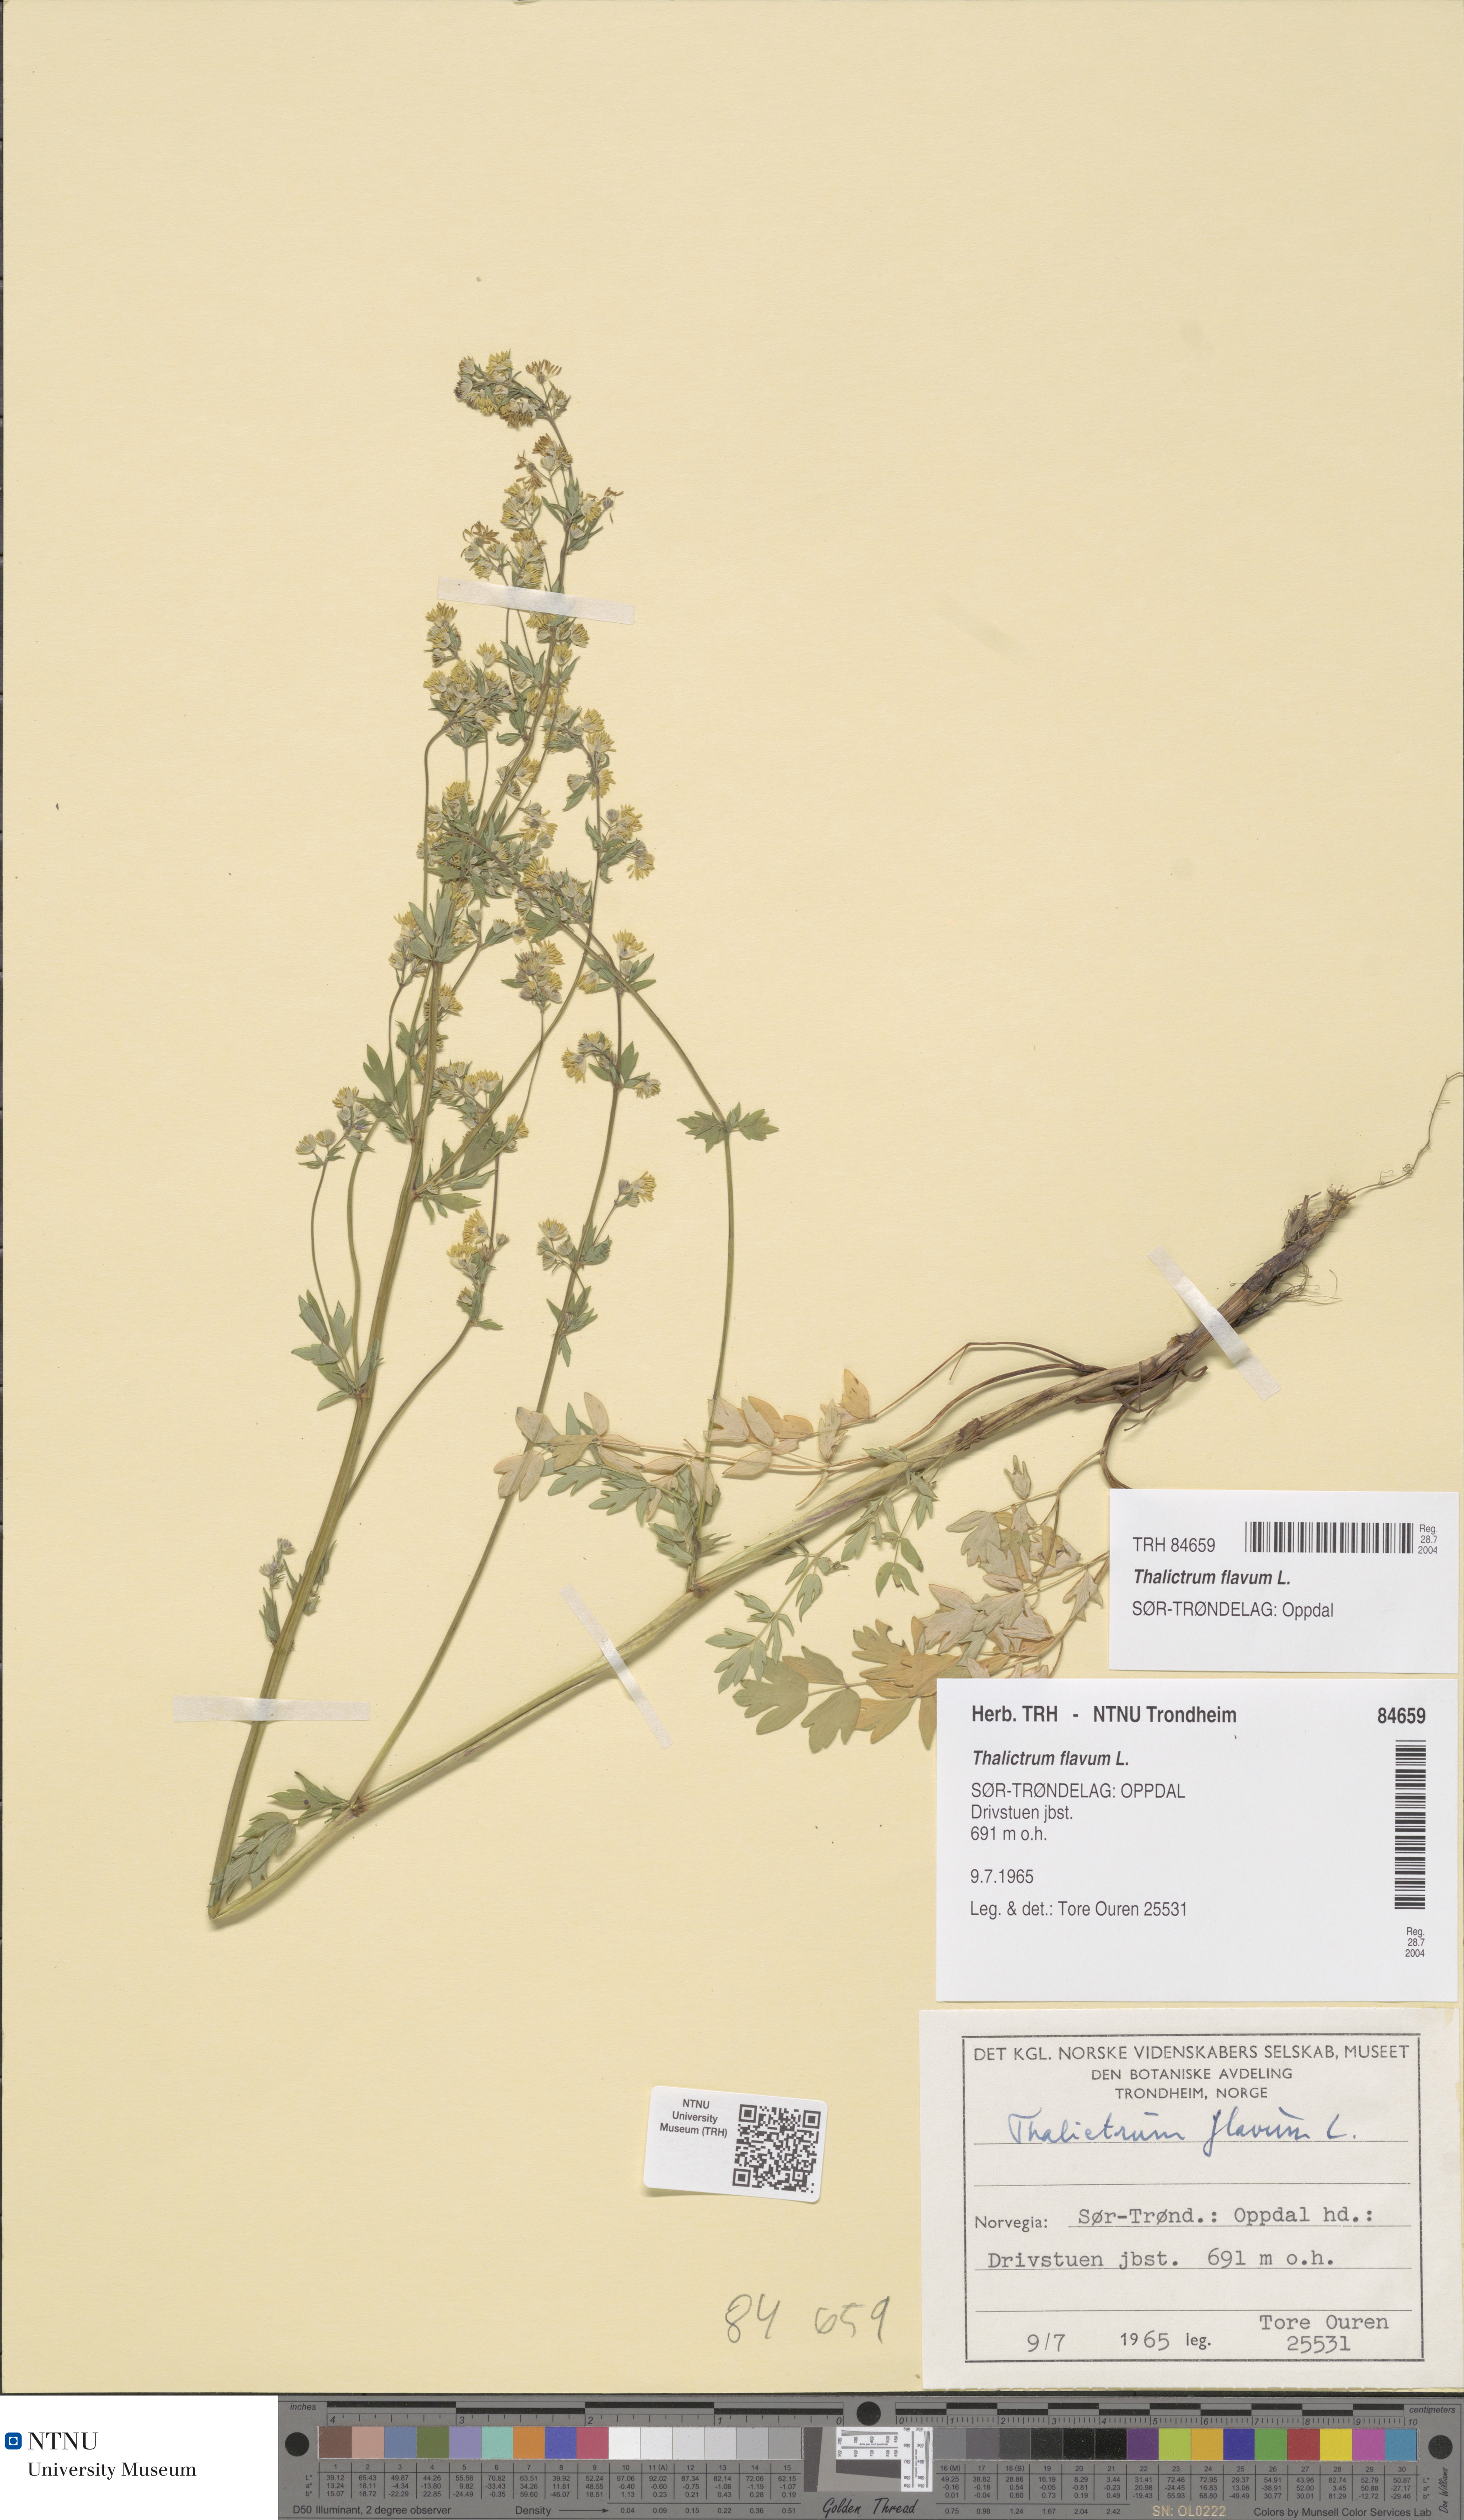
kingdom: Plantae
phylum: Tracheophyta
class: Magnoliopsida
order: Ranunculales
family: Ranunculaceae
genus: Thalictrum
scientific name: Thalictrum flavum
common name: Common meadow-rue
